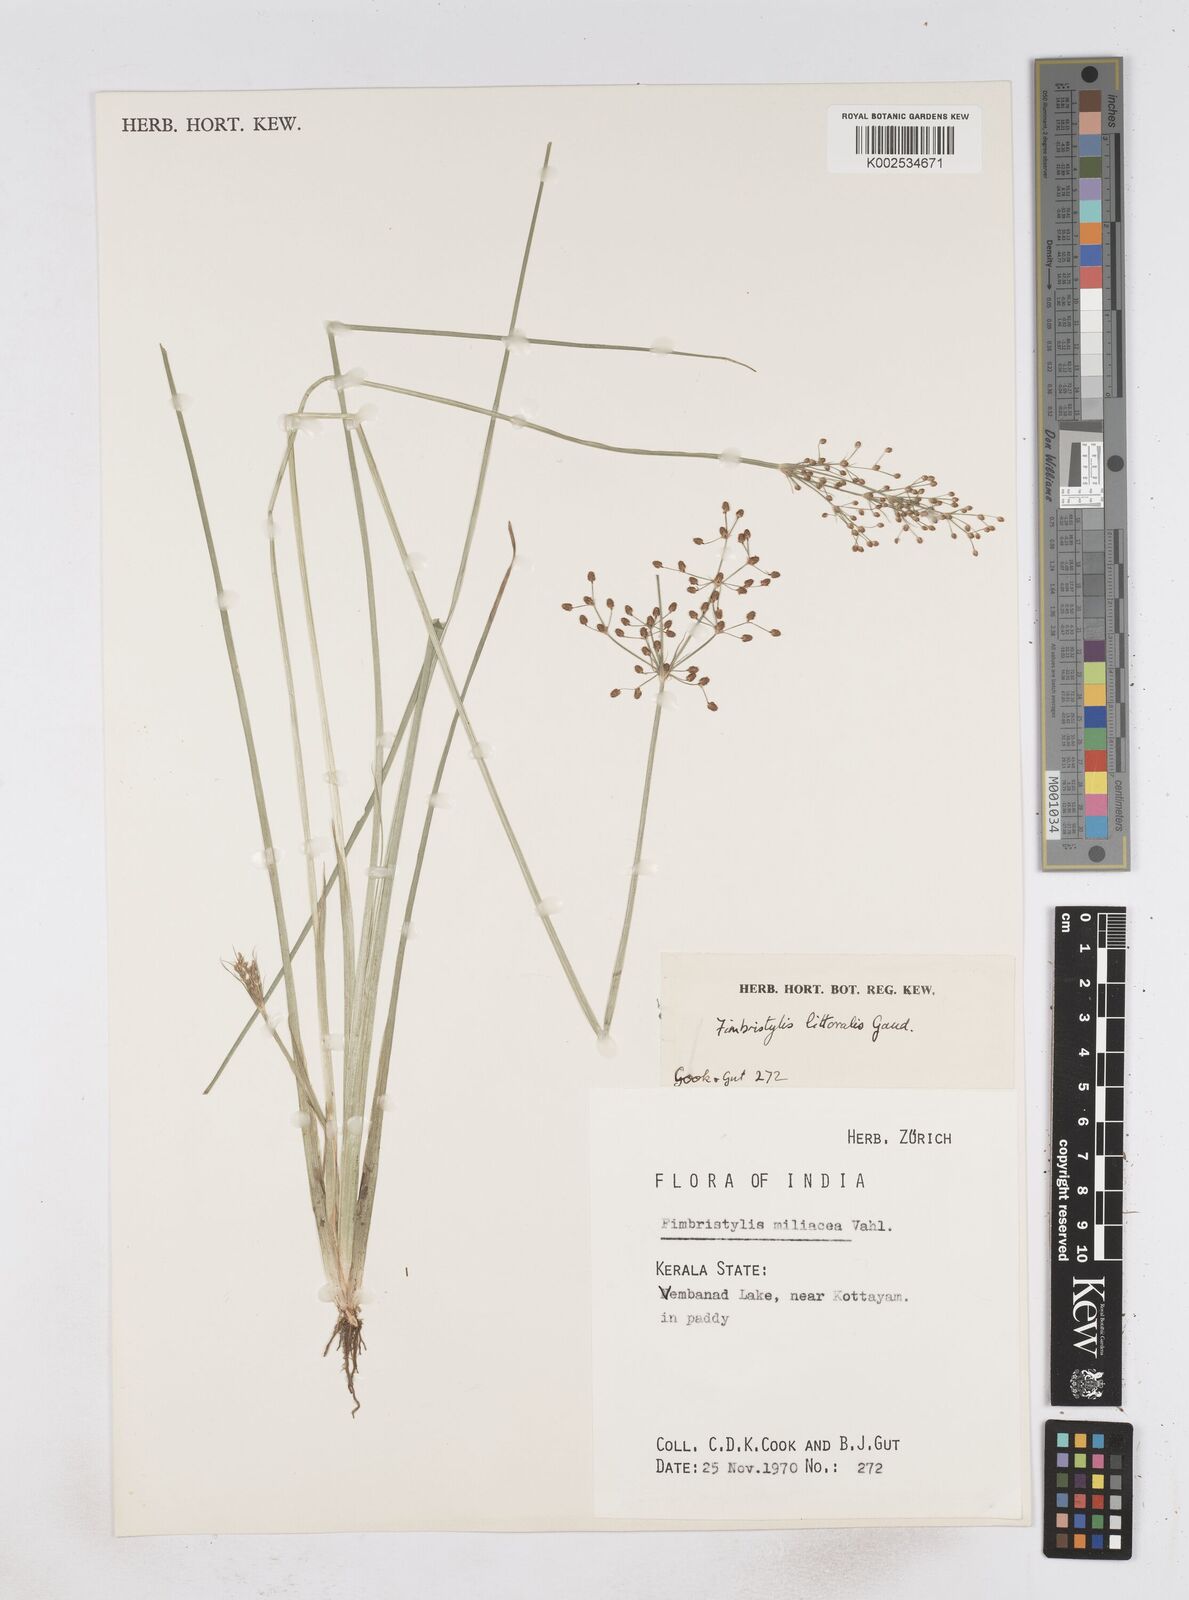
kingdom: Plantae
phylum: Tracheophyta
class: Liliopsida
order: Poales
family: Cyperaceae
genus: Fimbristylis
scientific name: Fimbristylis littoralis
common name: Fimbry
